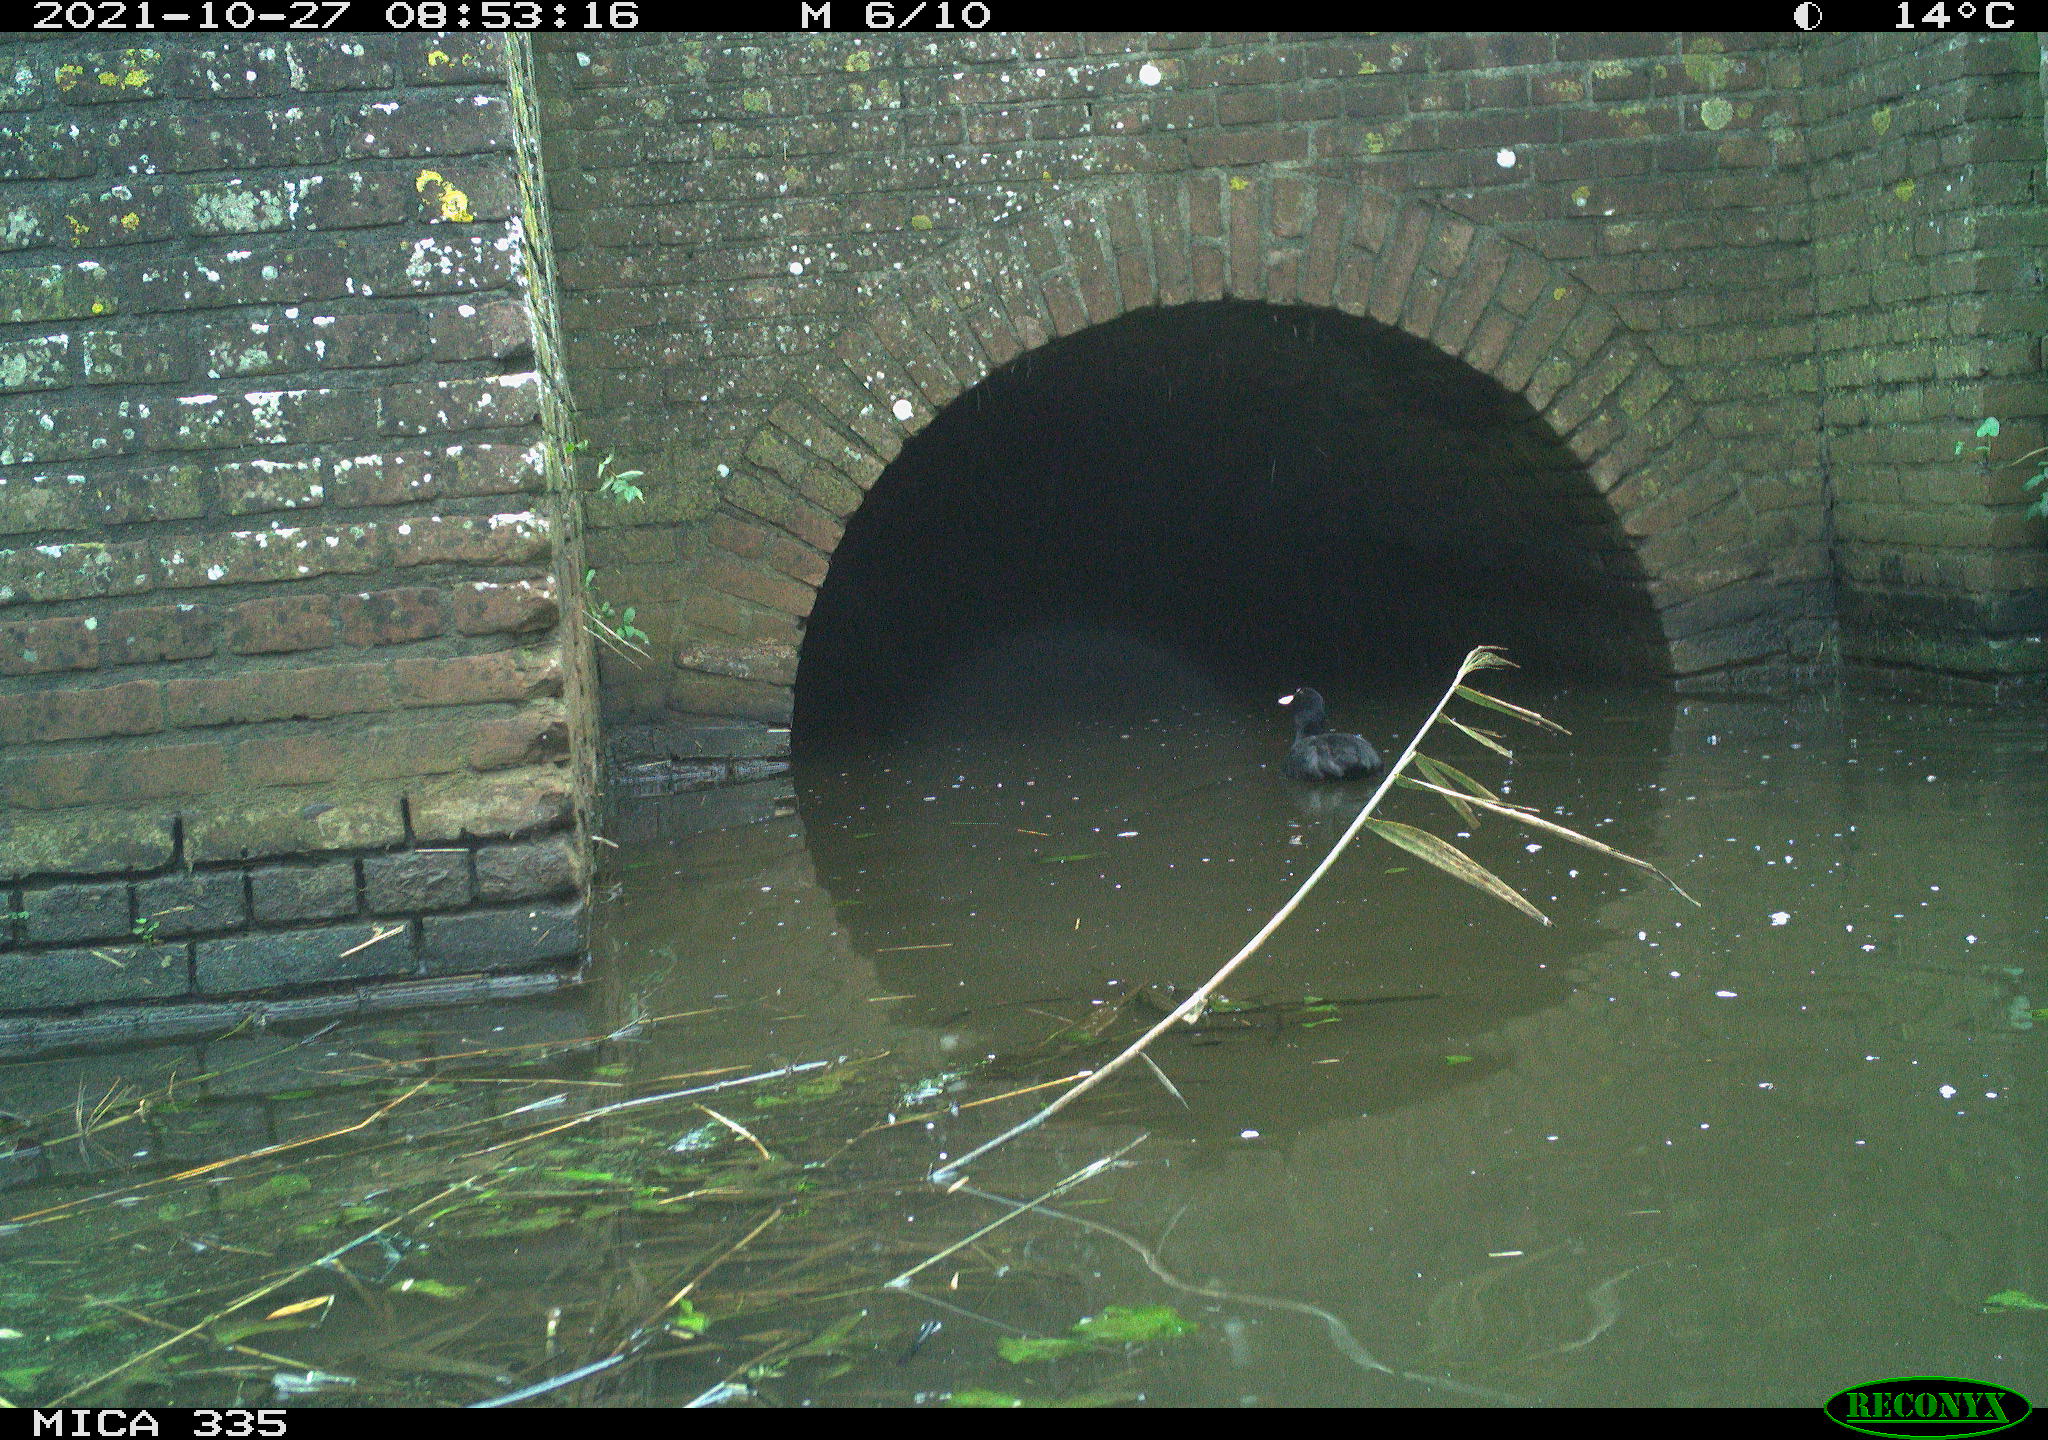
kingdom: Animalia
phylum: Chordata
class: Aves
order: Suliformes
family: Phalacrocoracidae
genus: Phalacrocorax
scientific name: Phalacrocorax carbo
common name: Great cormorant
